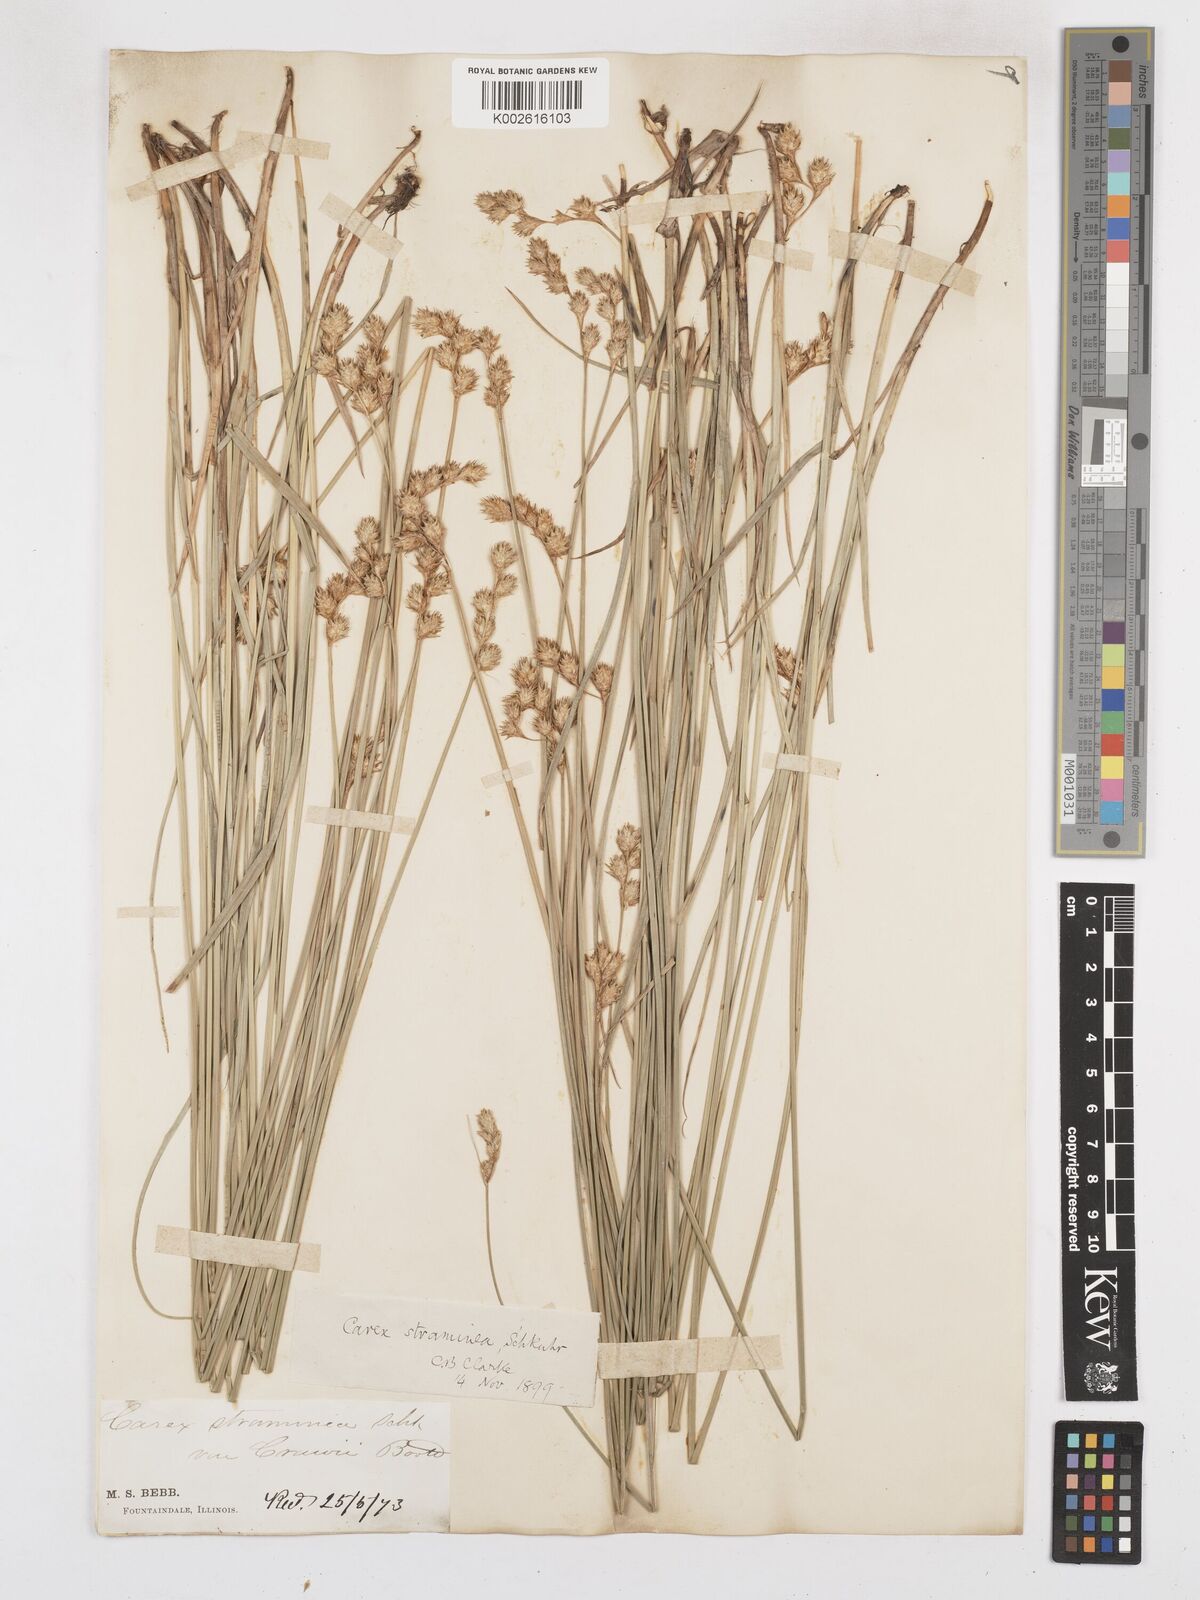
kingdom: Plantae
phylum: Tracheophyta
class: Liliopsida
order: Poales
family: Cyperaceae
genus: Carex
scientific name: Carex brevior
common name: Brevior sedge
